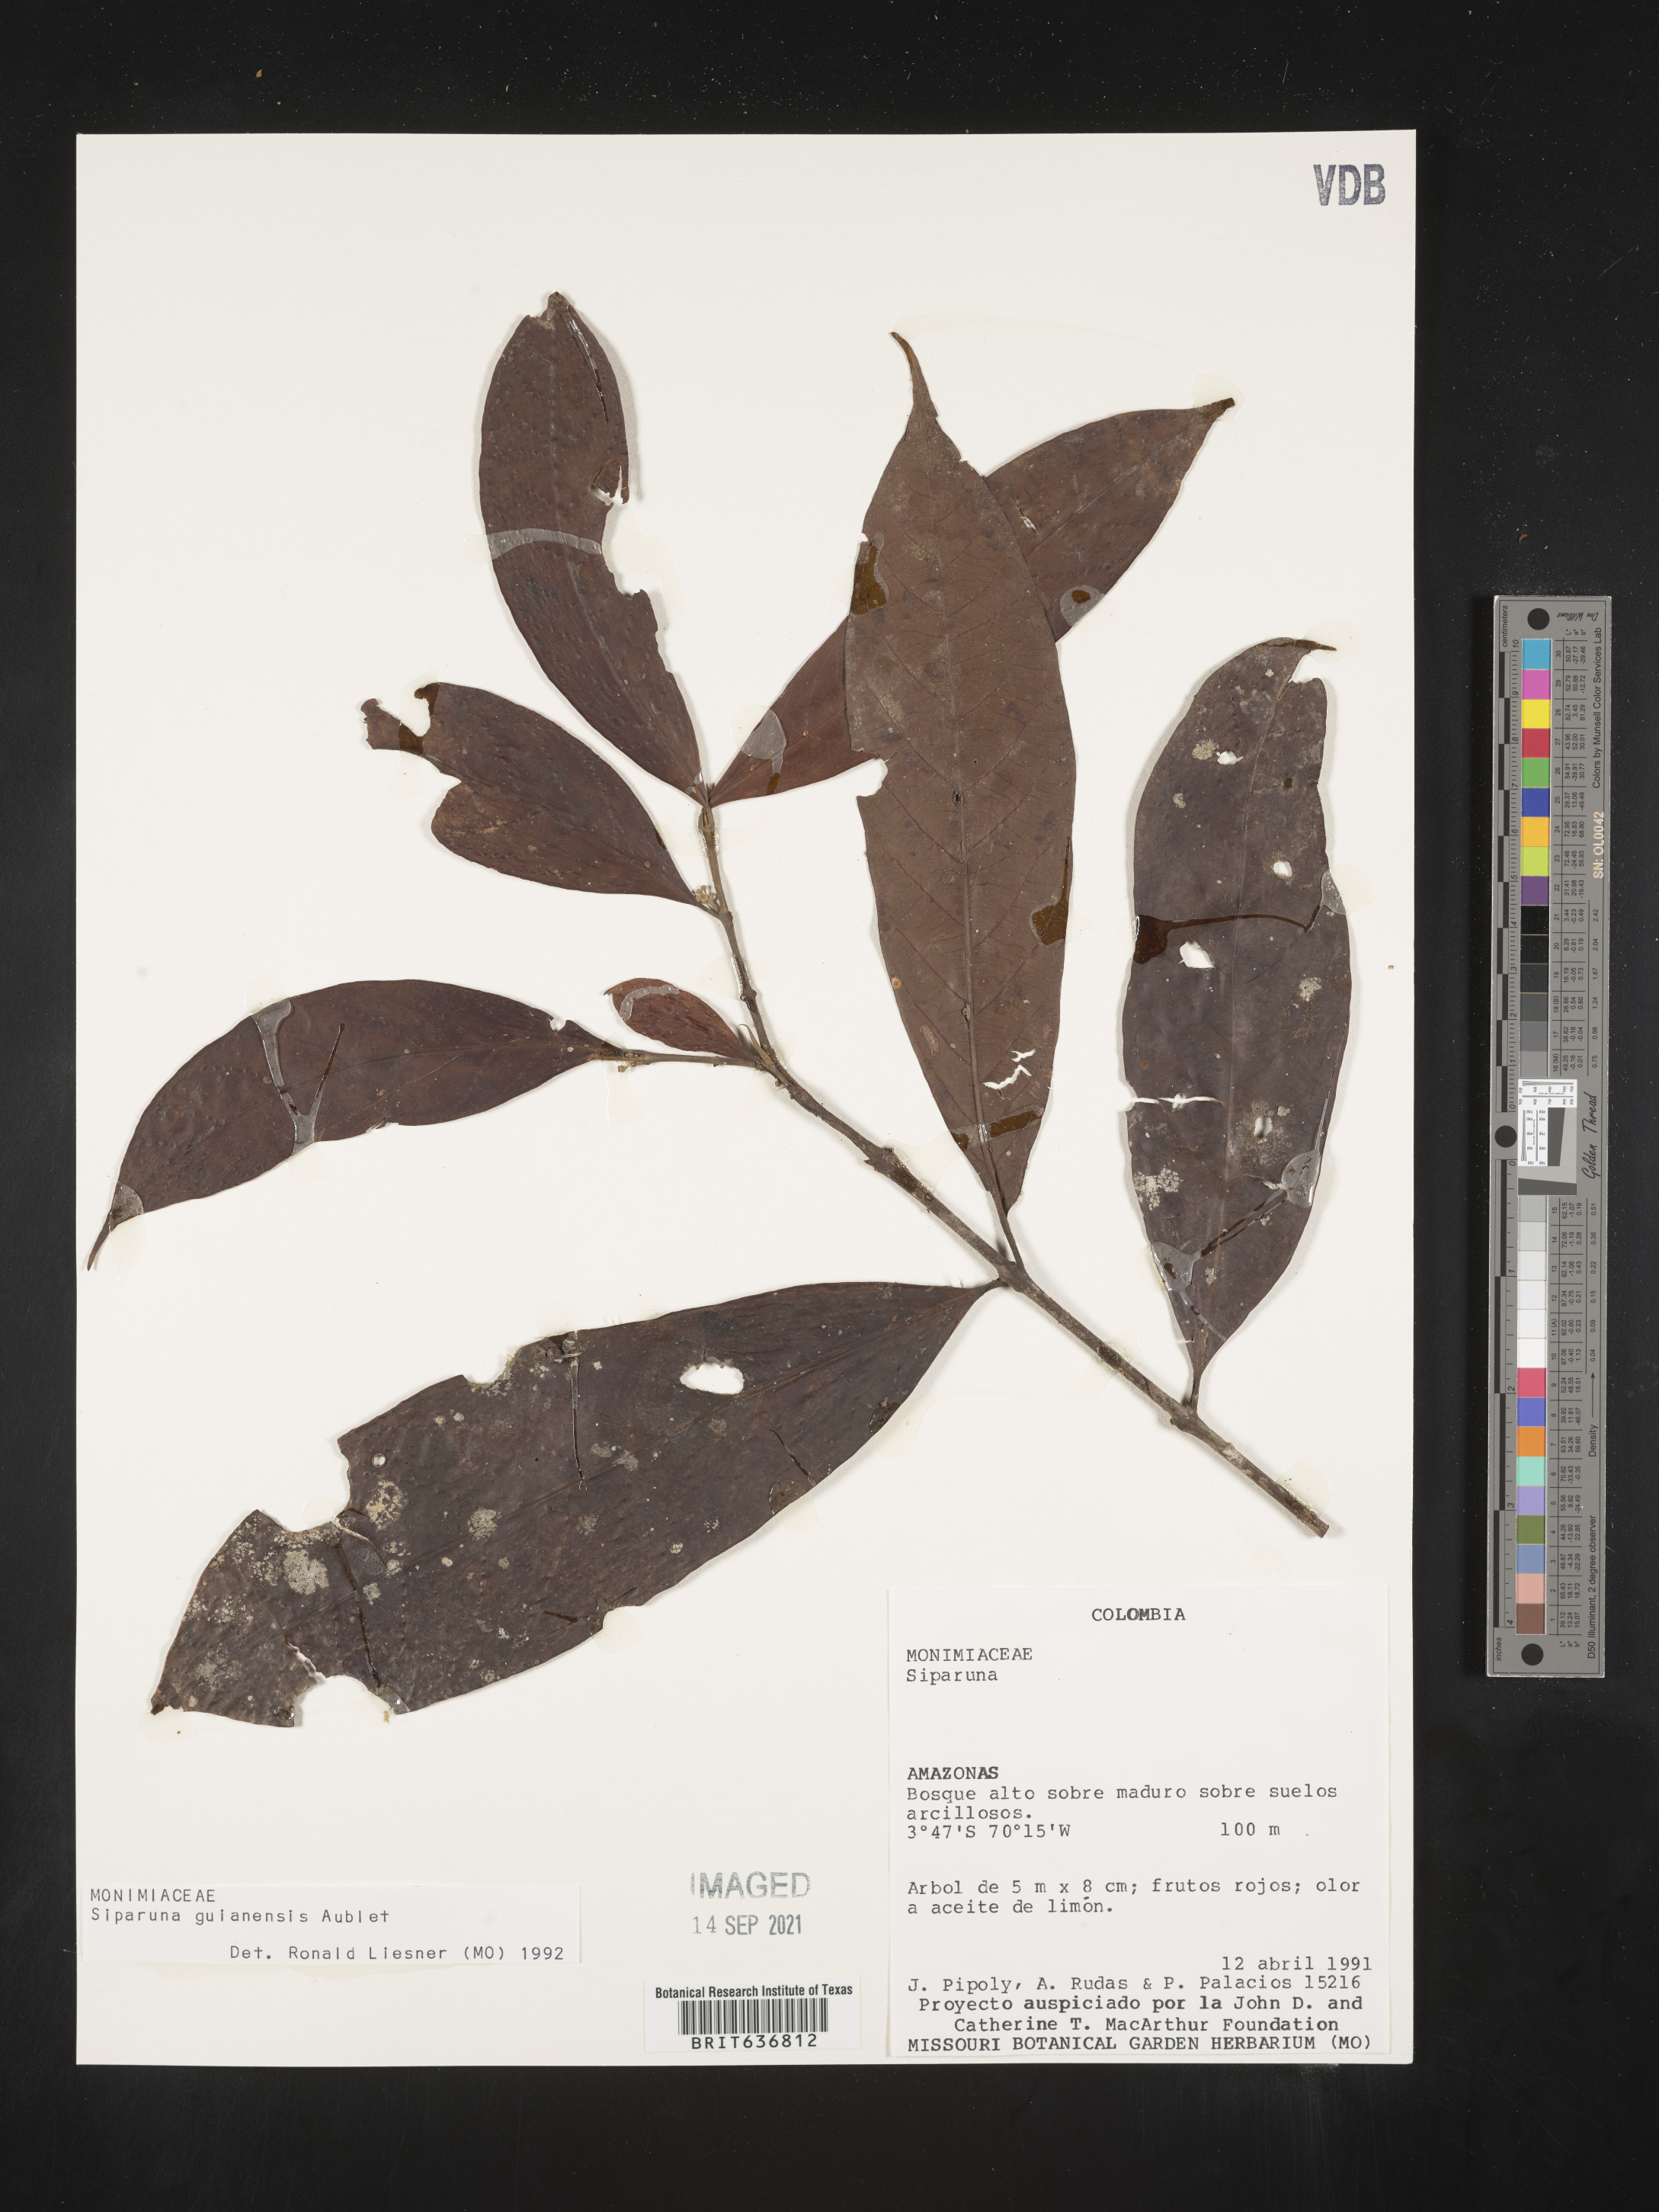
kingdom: Plantae
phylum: Tracheophyta
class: Magnoliopsida
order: Laurales
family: Siparunaceae
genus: Siparuna
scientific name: Siparuna
